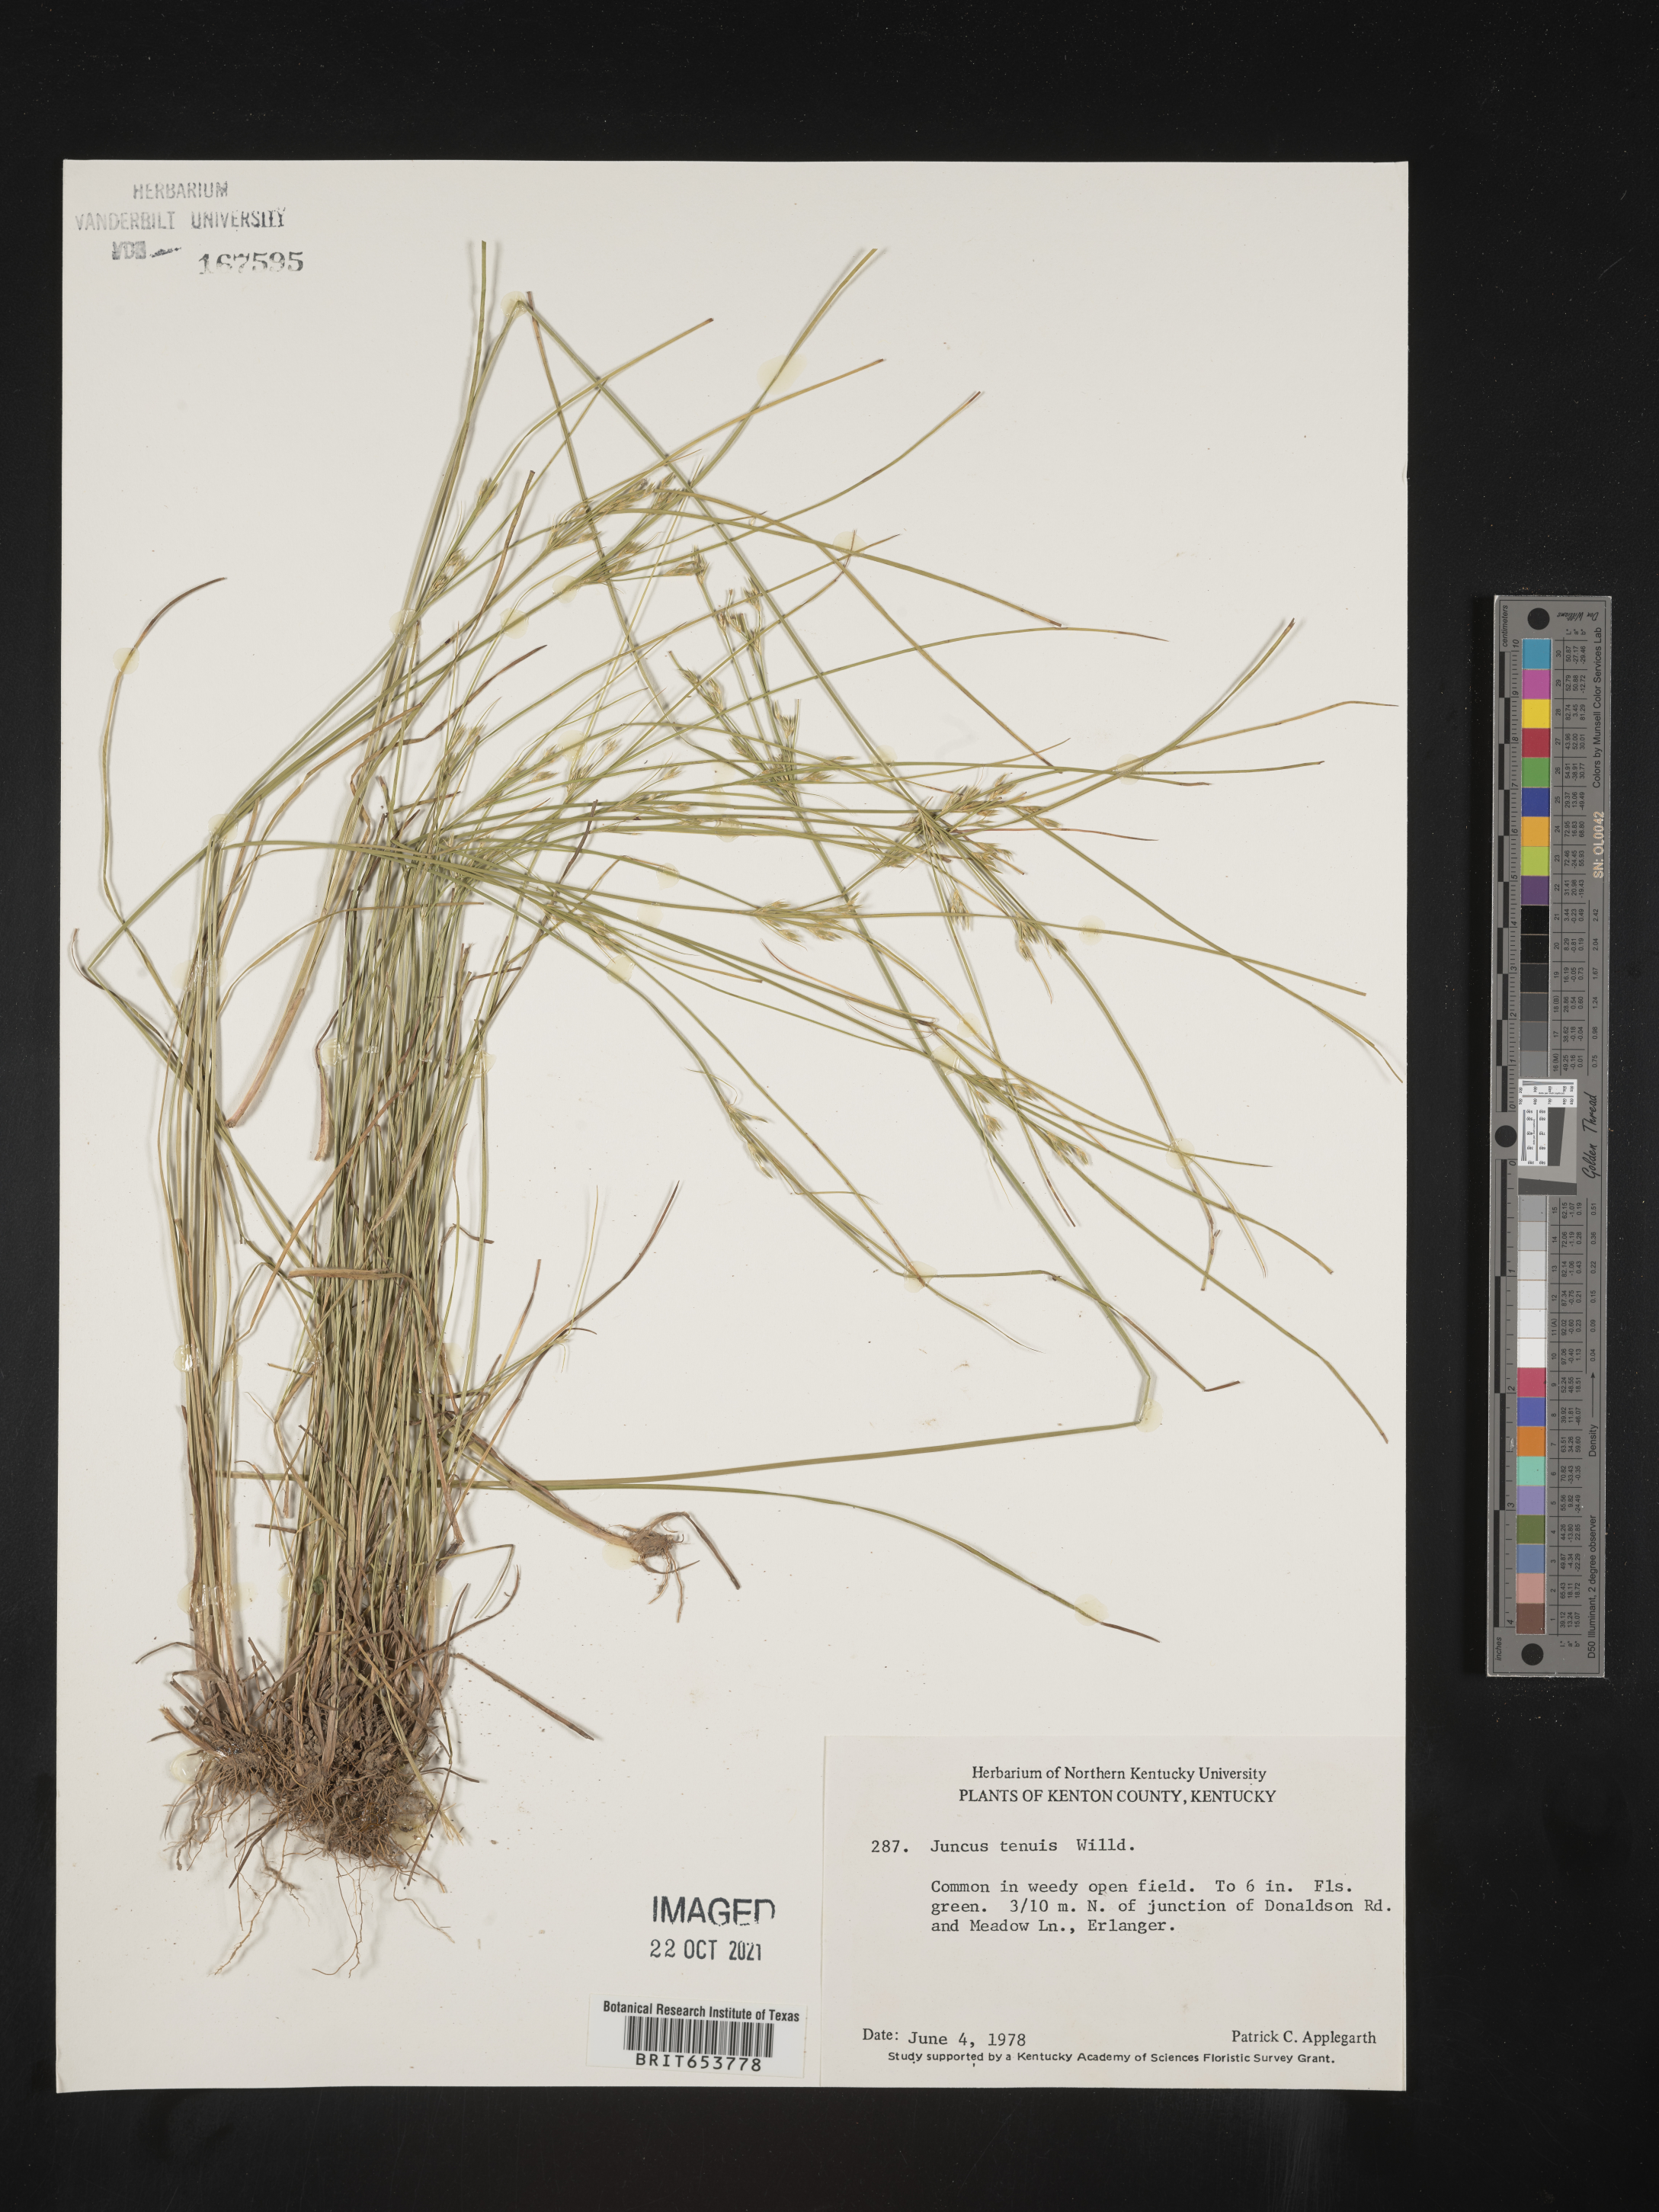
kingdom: Plantae
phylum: Tracheophyta
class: Liliopsida
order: Poales
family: Juncaceae
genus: Juncus
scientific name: Juncus tenuis
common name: Slender rush
